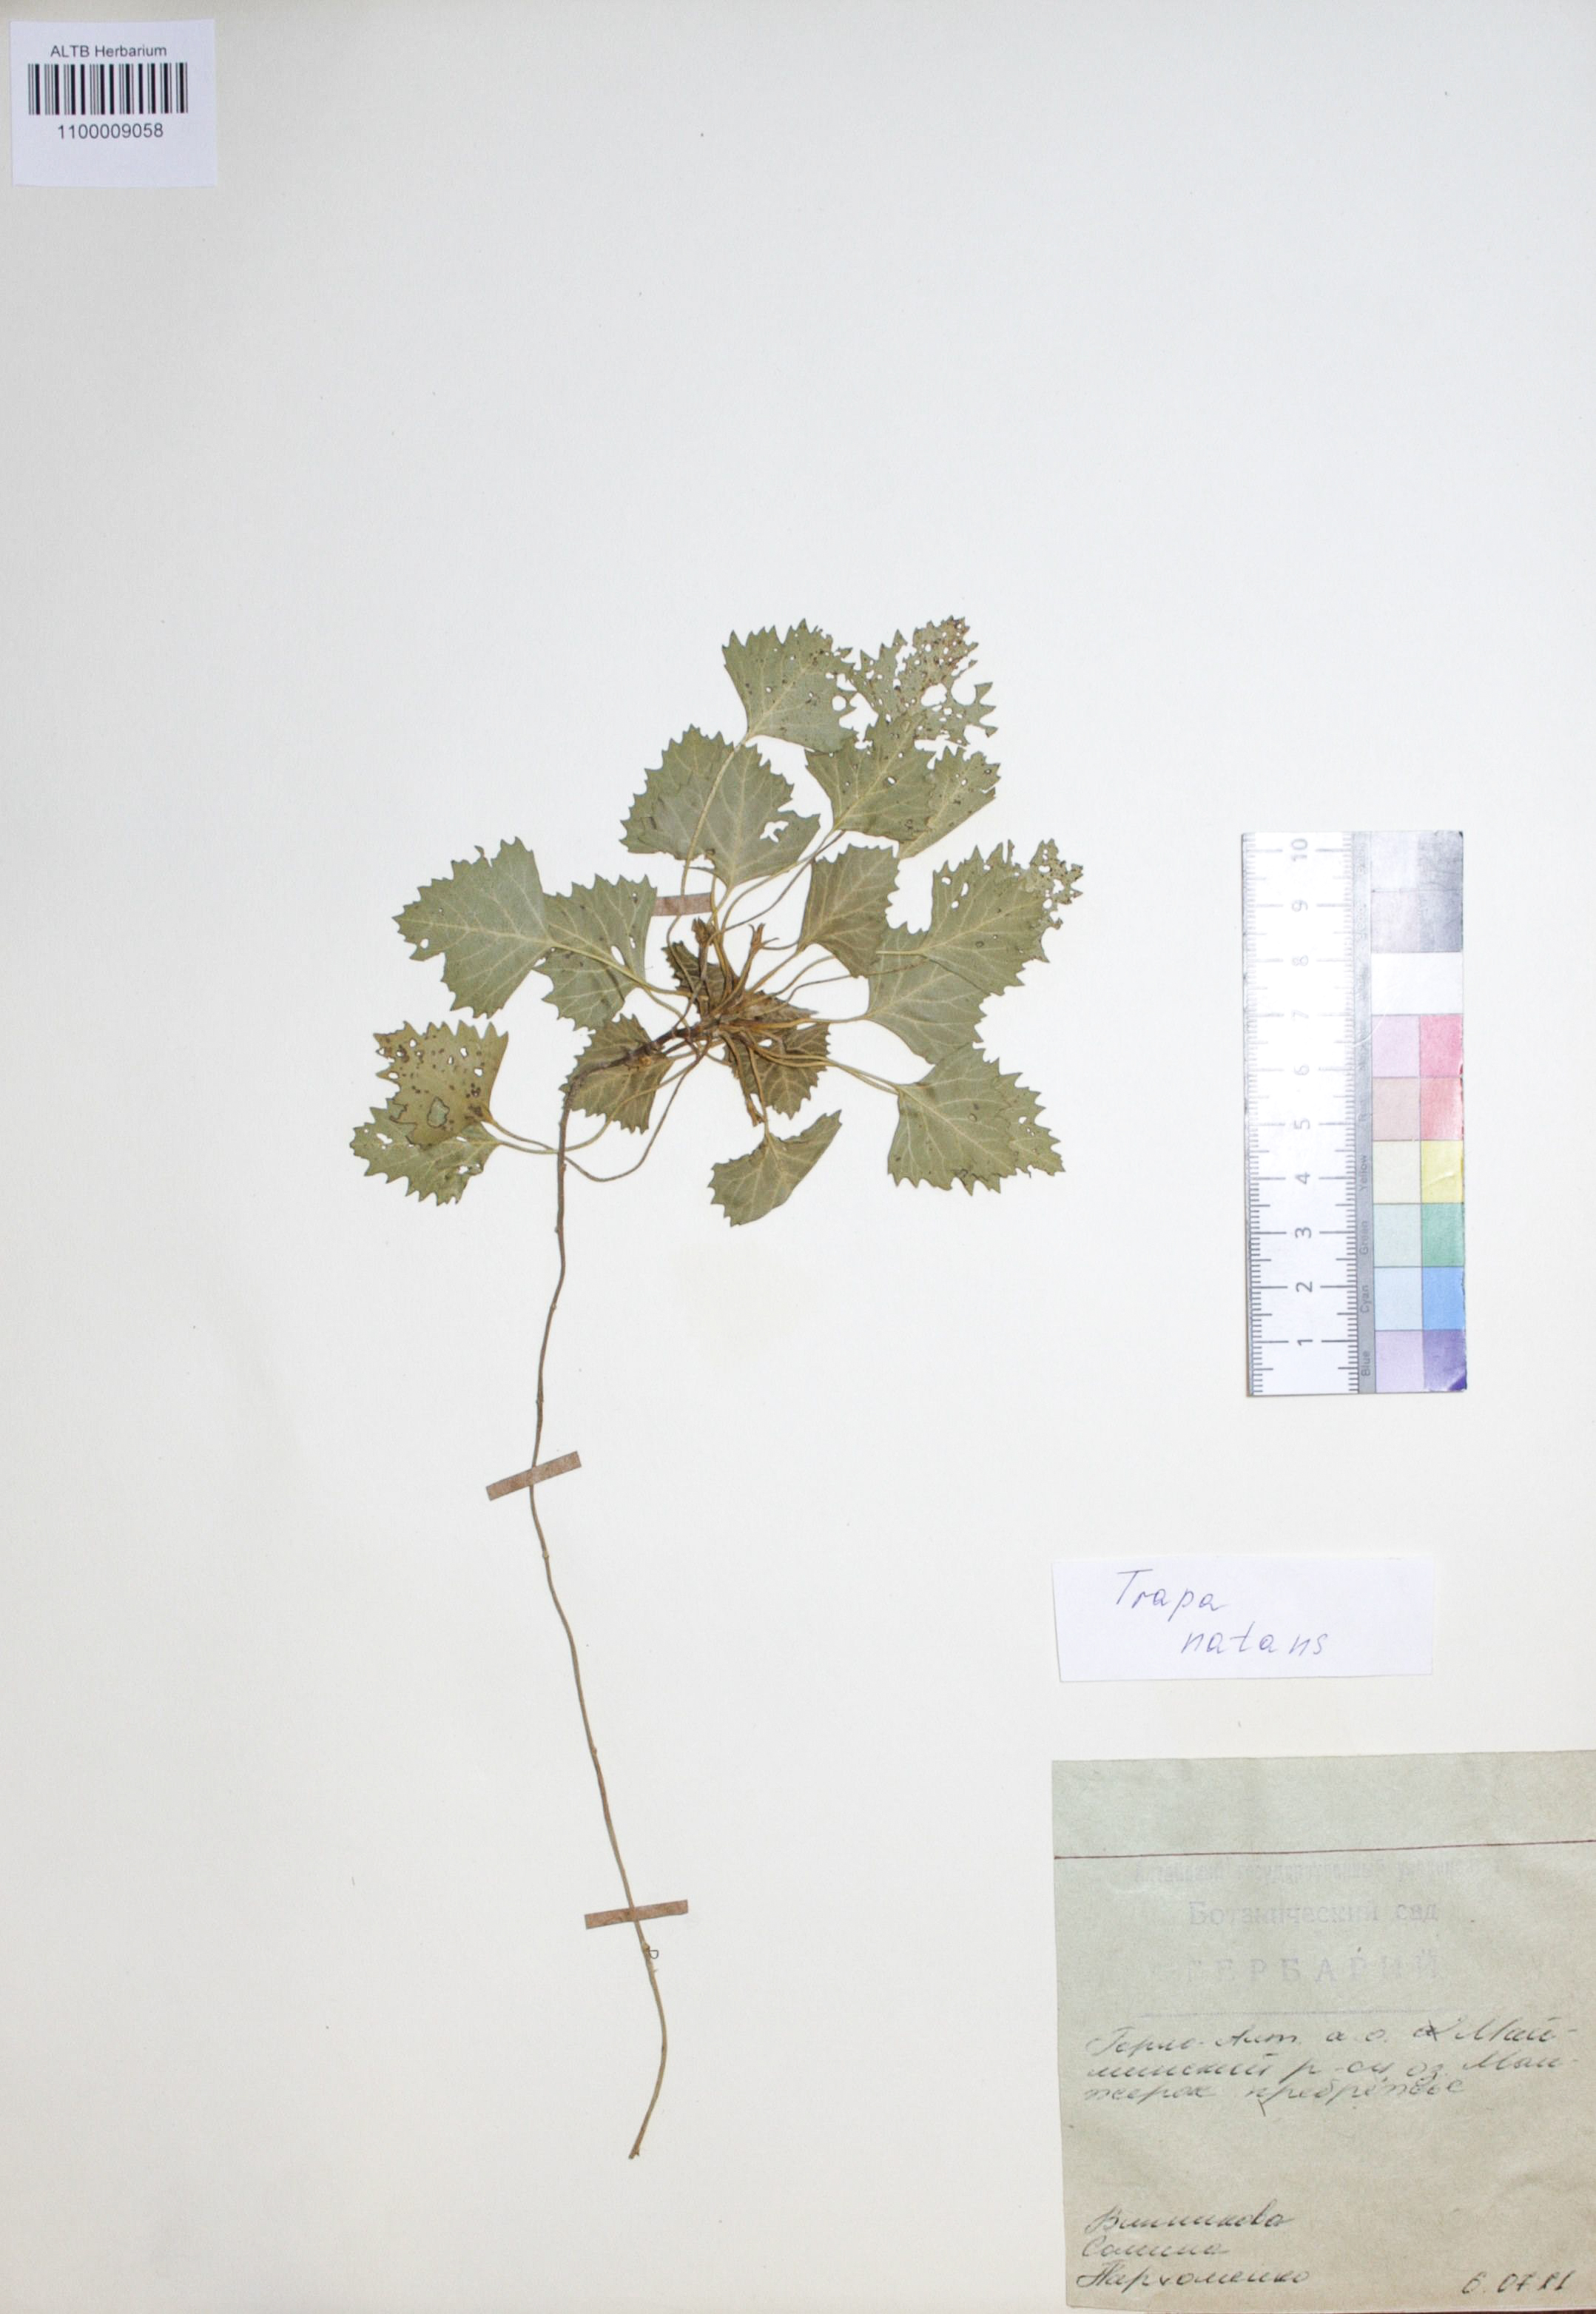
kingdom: Plantae
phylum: Tracheophyta
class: Magnoliopsida
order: Myrtales
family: Lythraceae
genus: Trapa
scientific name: Trapa natans
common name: Water chestnut
